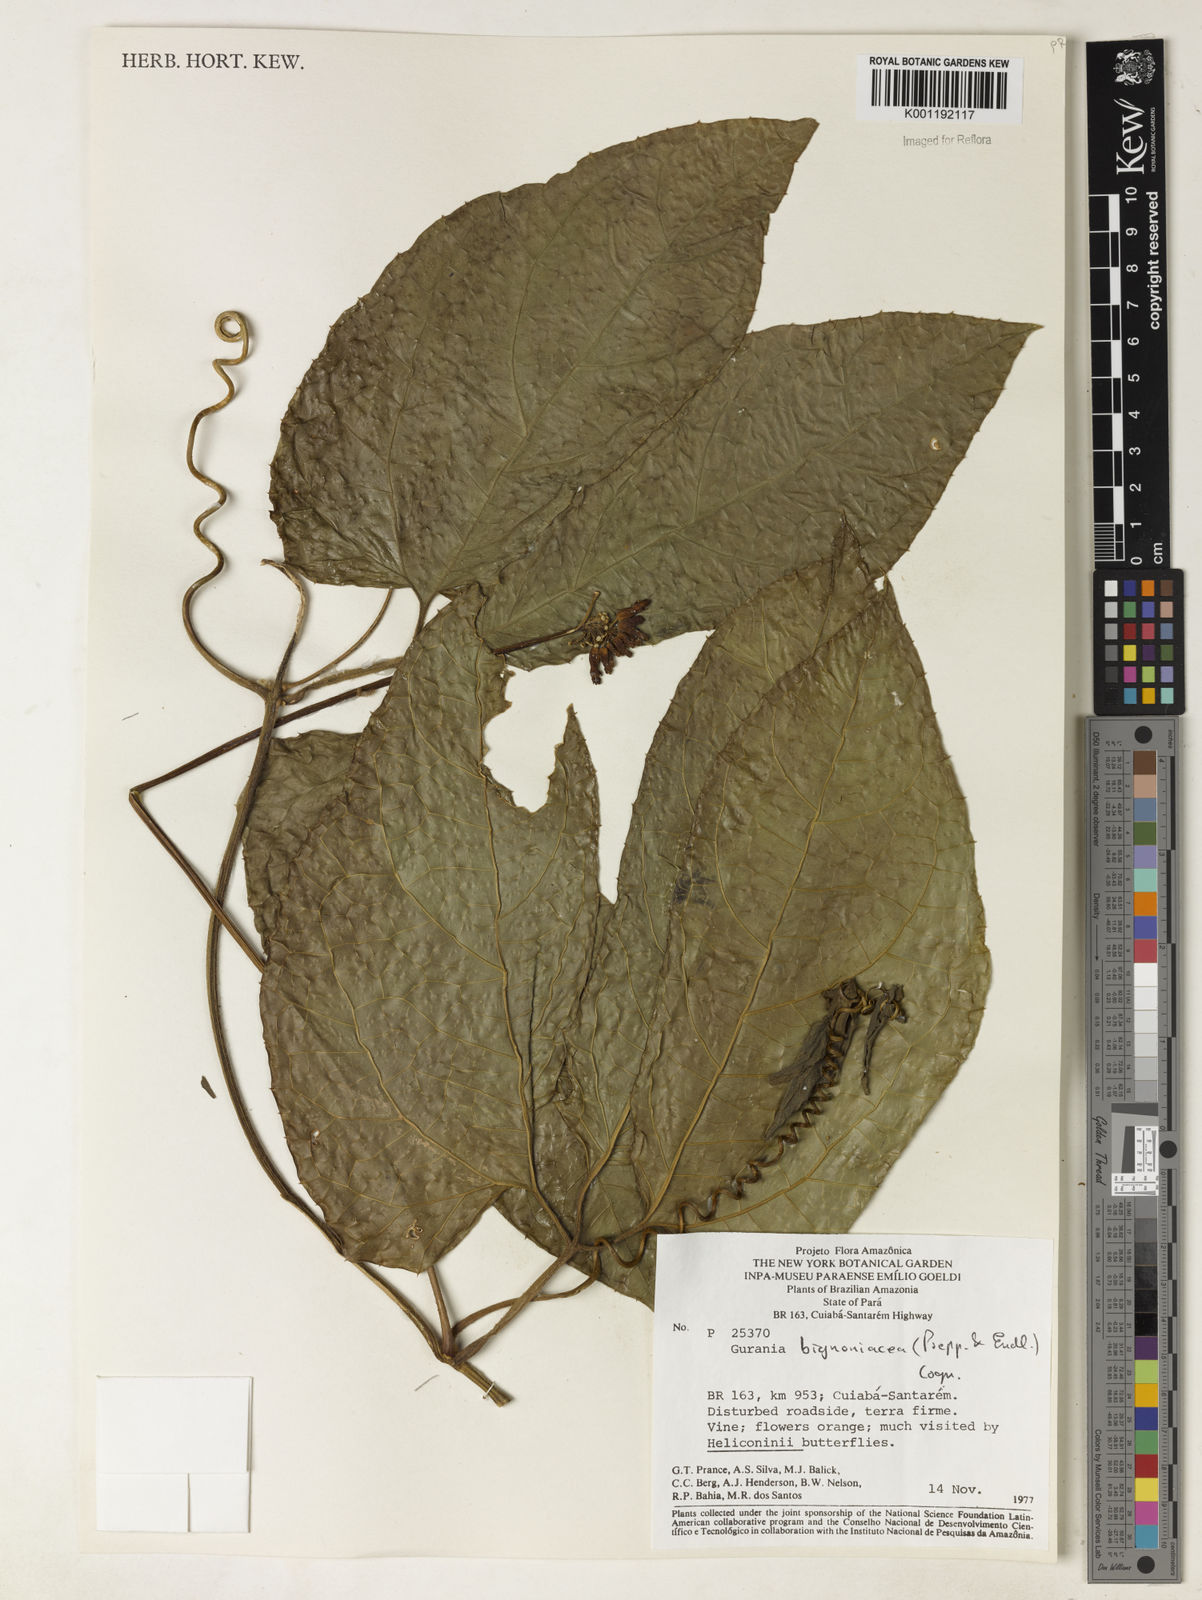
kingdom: Plantae
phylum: Tracheophyta
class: Magnoliopsida
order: Cucurbitales
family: Cucurbitaceae
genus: Gurania
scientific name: Gurania bignoniacea
